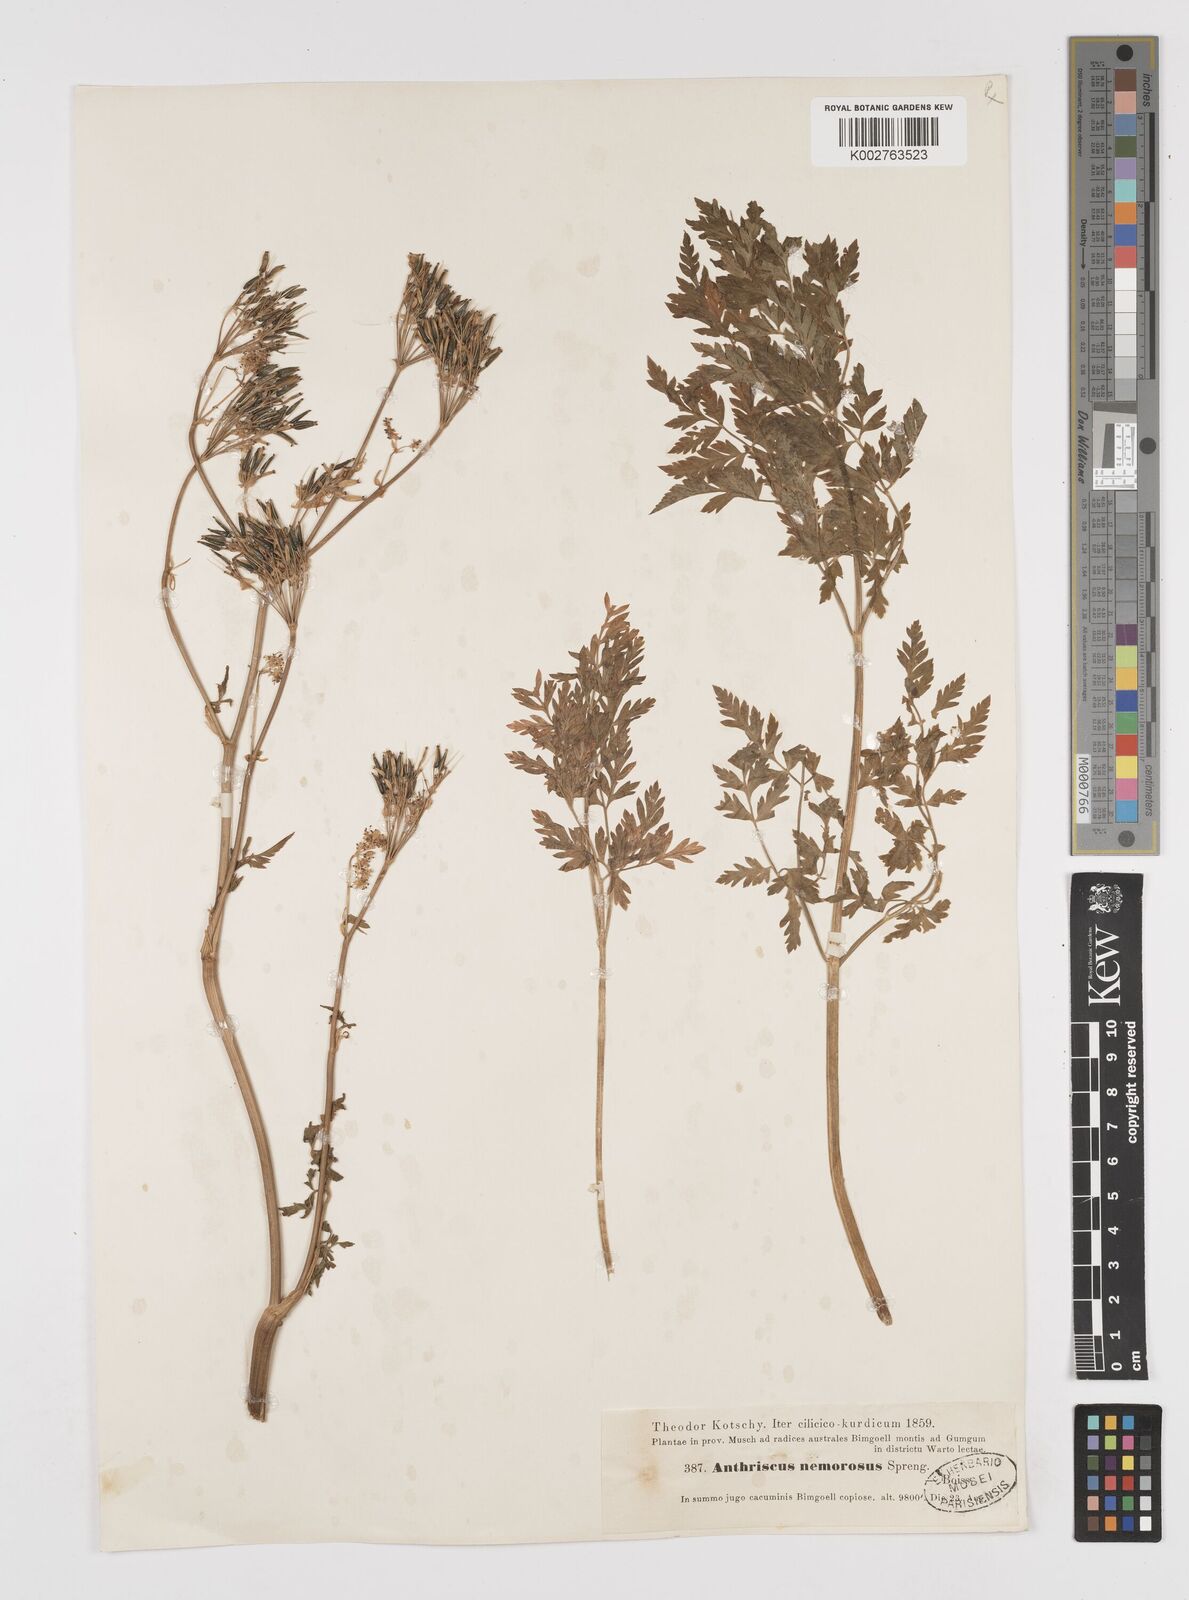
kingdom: Plantae
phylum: Tracheophyta
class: Magnoliopsida
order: Apiales
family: Apiaceae
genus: Anthriscus
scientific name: Anthriscus sylvestris
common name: Cow parsley
